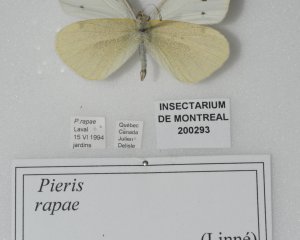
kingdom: Animalia
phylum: Arthropoda
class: Insecta
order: Lepidoptera
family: Pieridae
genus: Pieris
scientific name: Pieris rapae
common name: Cabbage White
